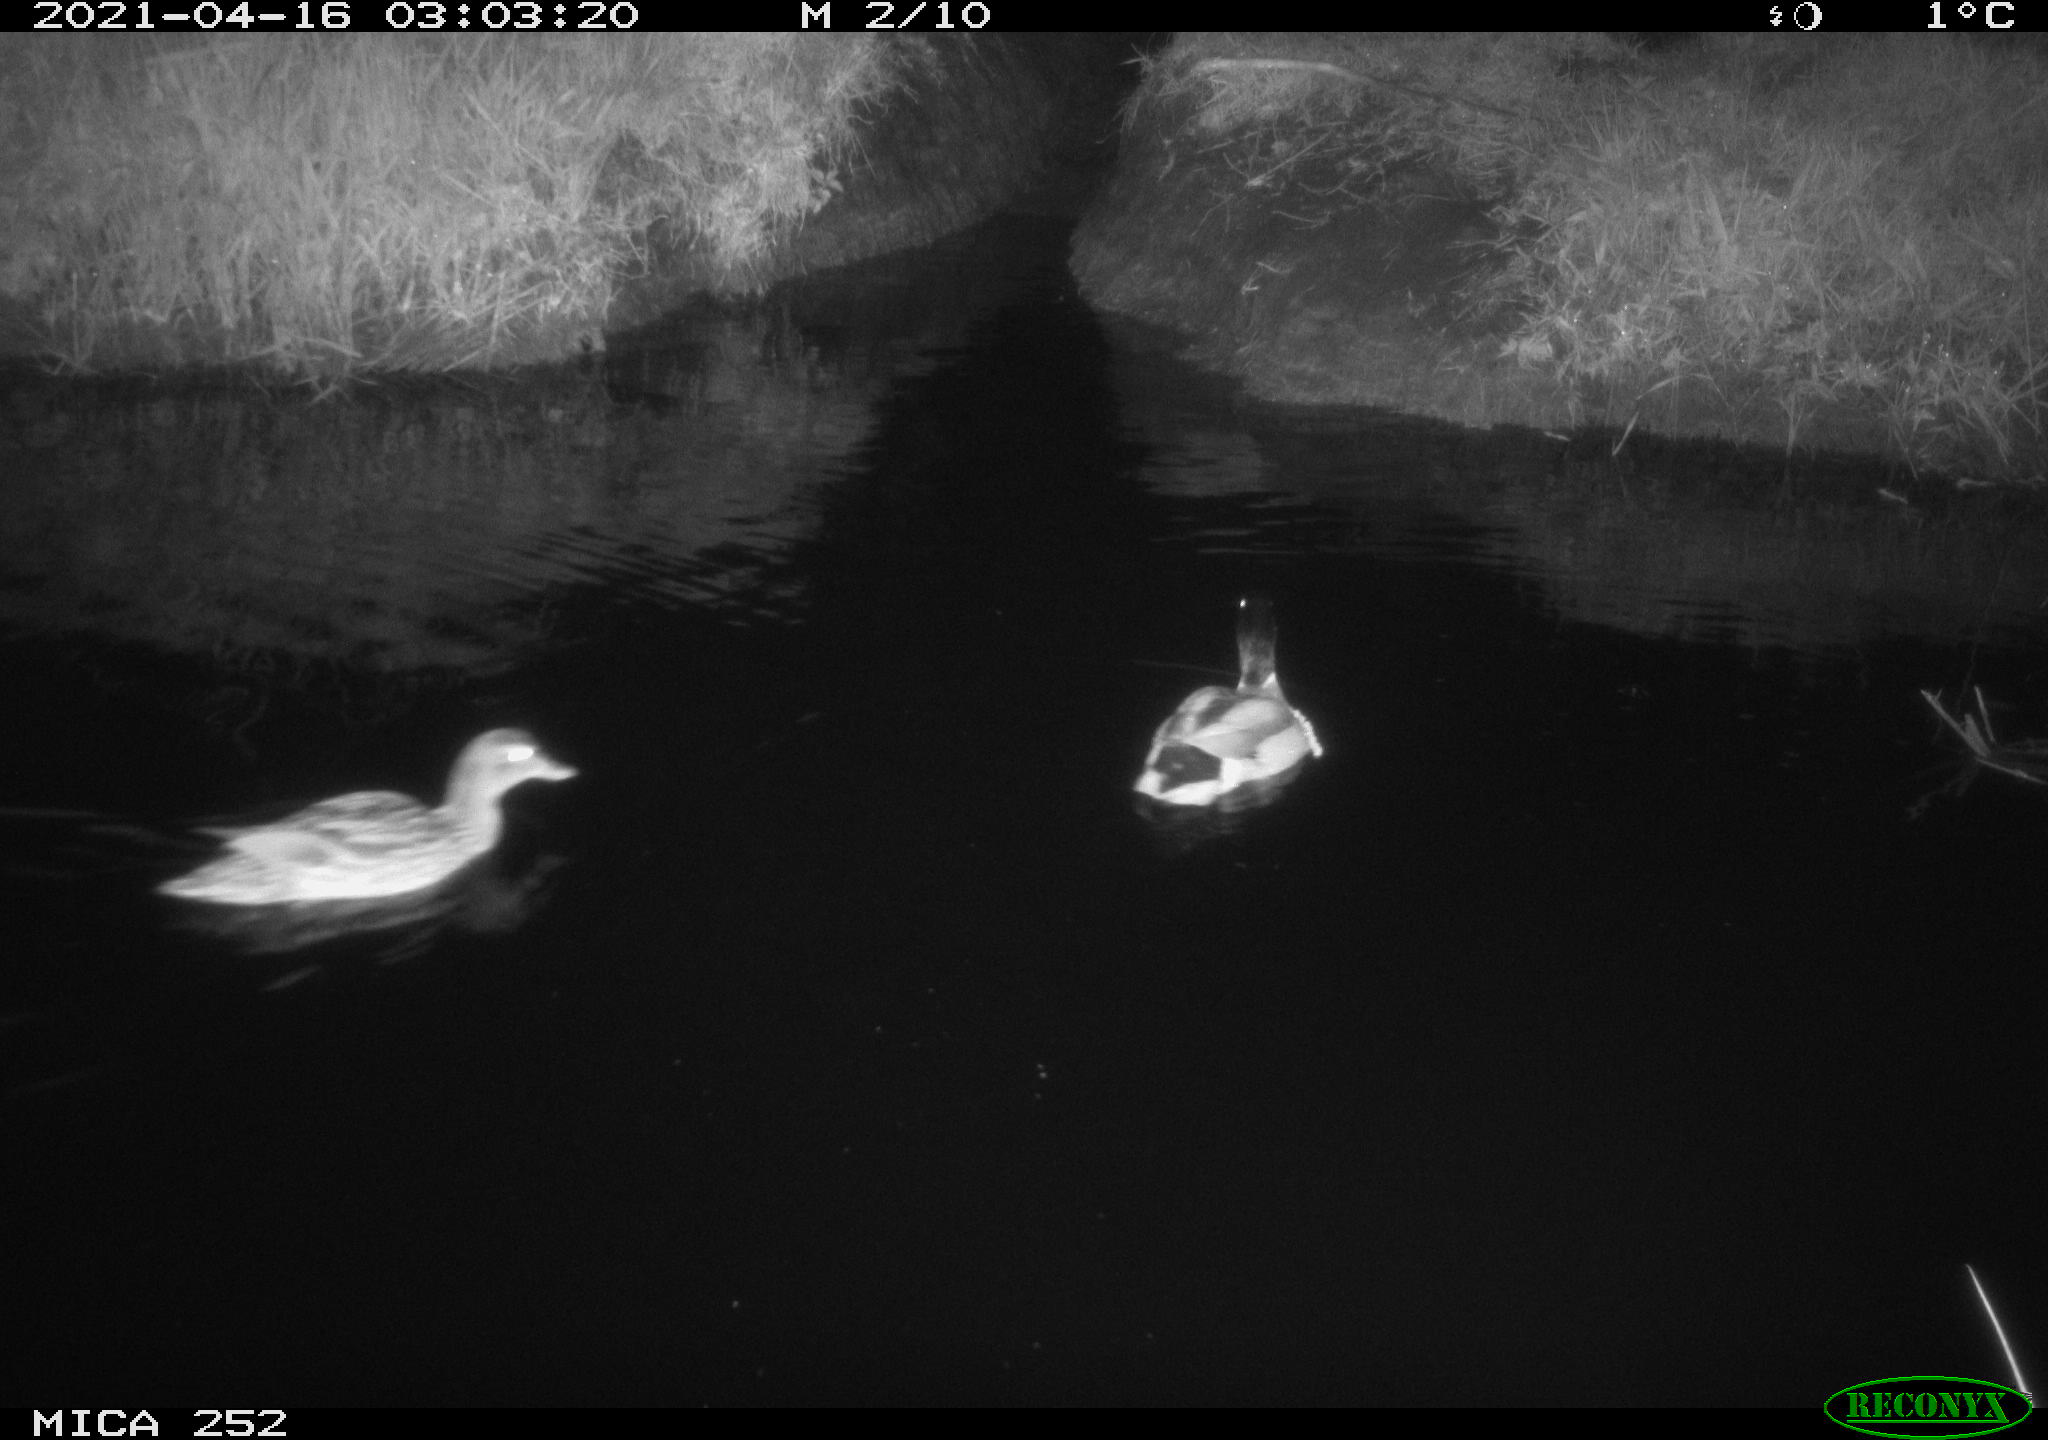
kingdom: Animalia
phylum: Chordata
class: Aves
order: Anseriformes
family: Anatidae
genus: Anas
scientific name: Anas platyrhynchos
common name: Mallard
